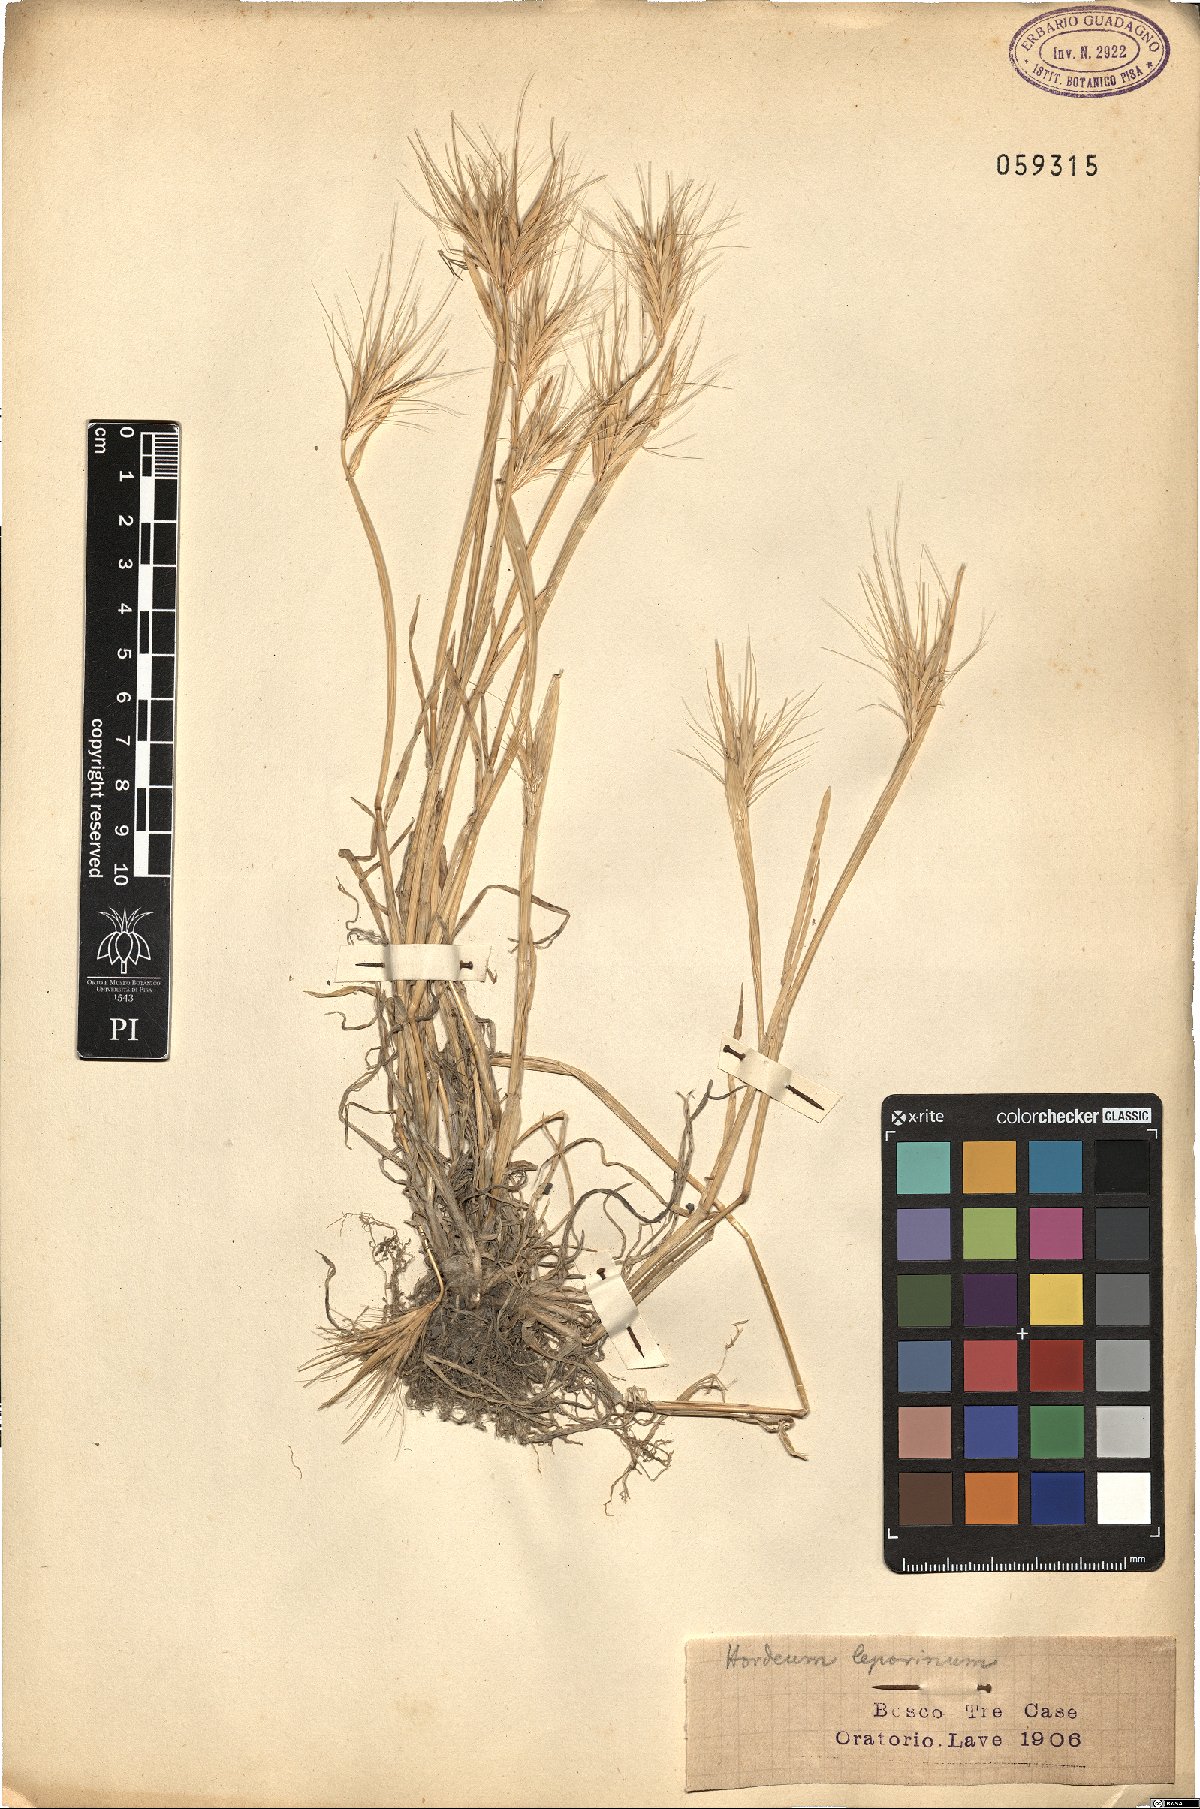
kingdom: Plantae
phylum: Tracheophyta
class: Liliopsida
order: Poales
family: Poaceae
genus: Hordeum
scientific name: Hordeum murinum
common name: Wall barley
